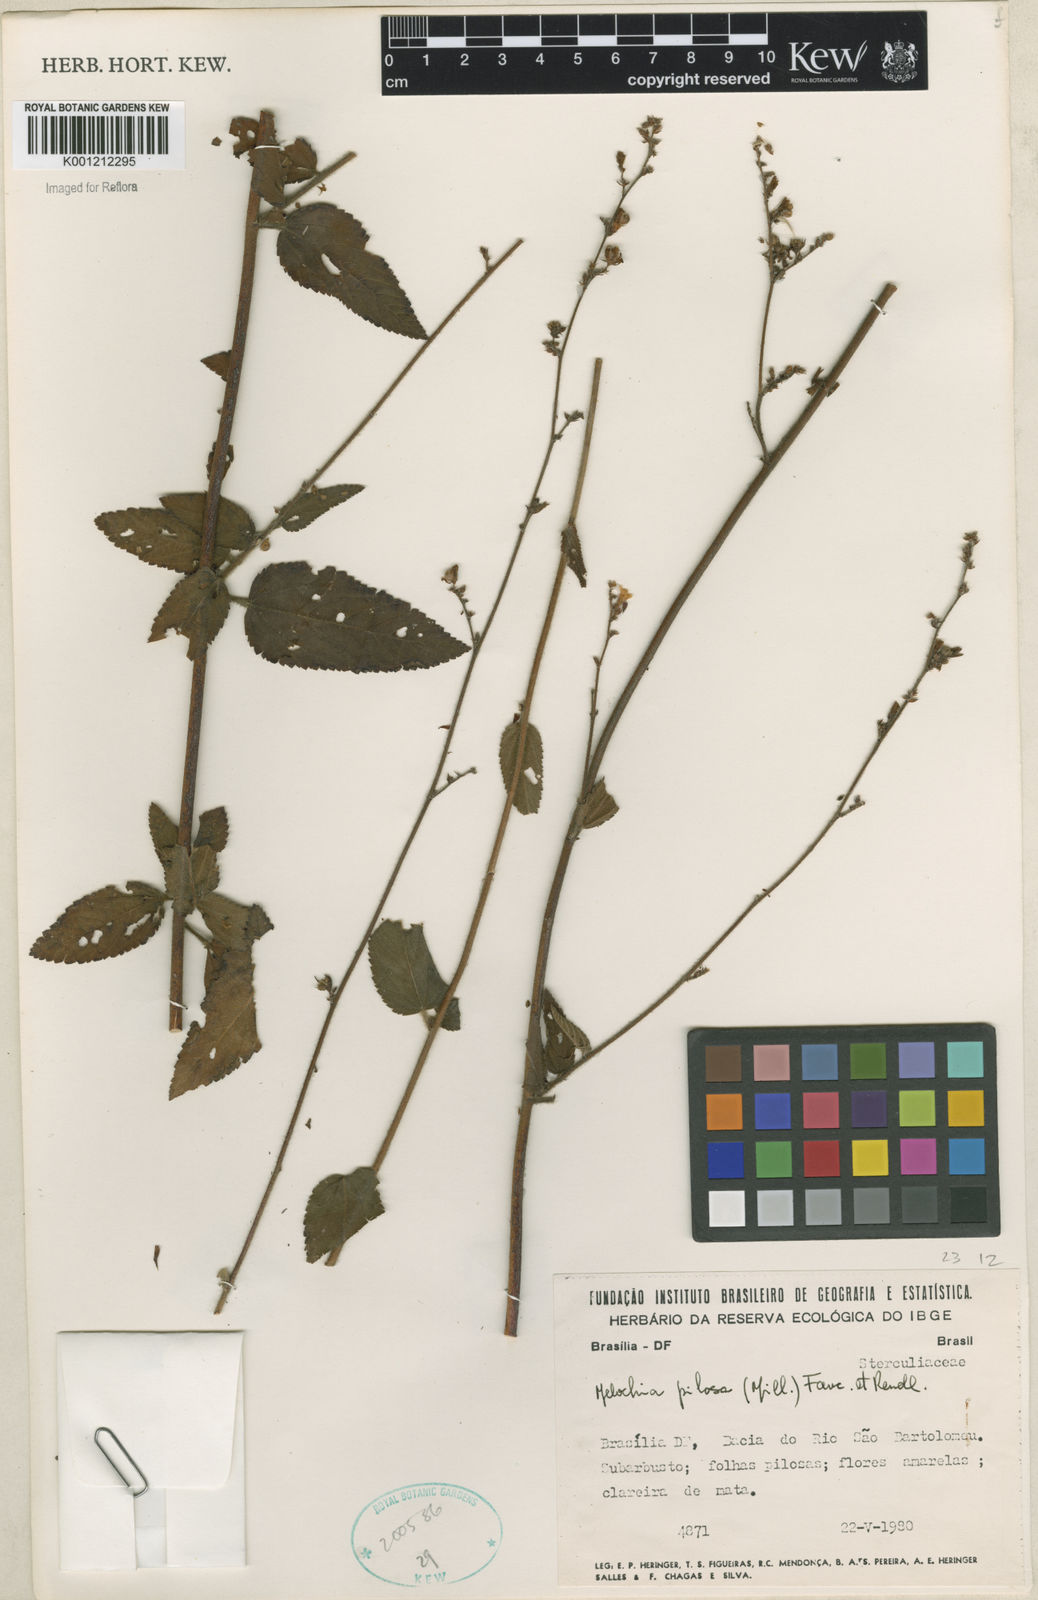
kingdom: Plantae
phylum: Tracheophyta
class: Magnoliopsida
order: Malvales
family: Malvaceae
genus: Melochia
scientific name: Melochia pilosa
